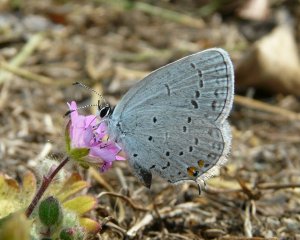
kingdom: Animalia
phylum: Arthropoda
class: Insecta
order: Lepidoptera
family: Lycaenidae
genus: Elkalyce
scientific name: Elkalyce comyntas
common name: Eastern Tailed-Blue
